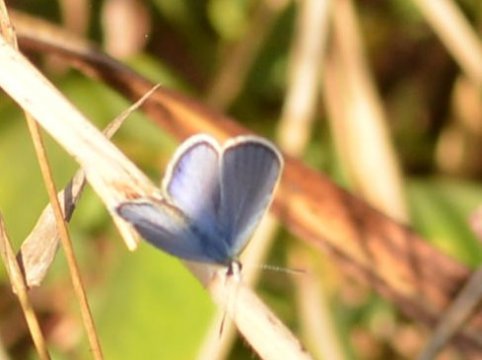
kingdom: Animalia
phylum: Arthropoda
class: Insecta
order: Lepidoptera
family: Lycaenidae
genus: Elkalyce
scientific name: Elkalyce comyntas
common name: Eastern Tailed-Blue
